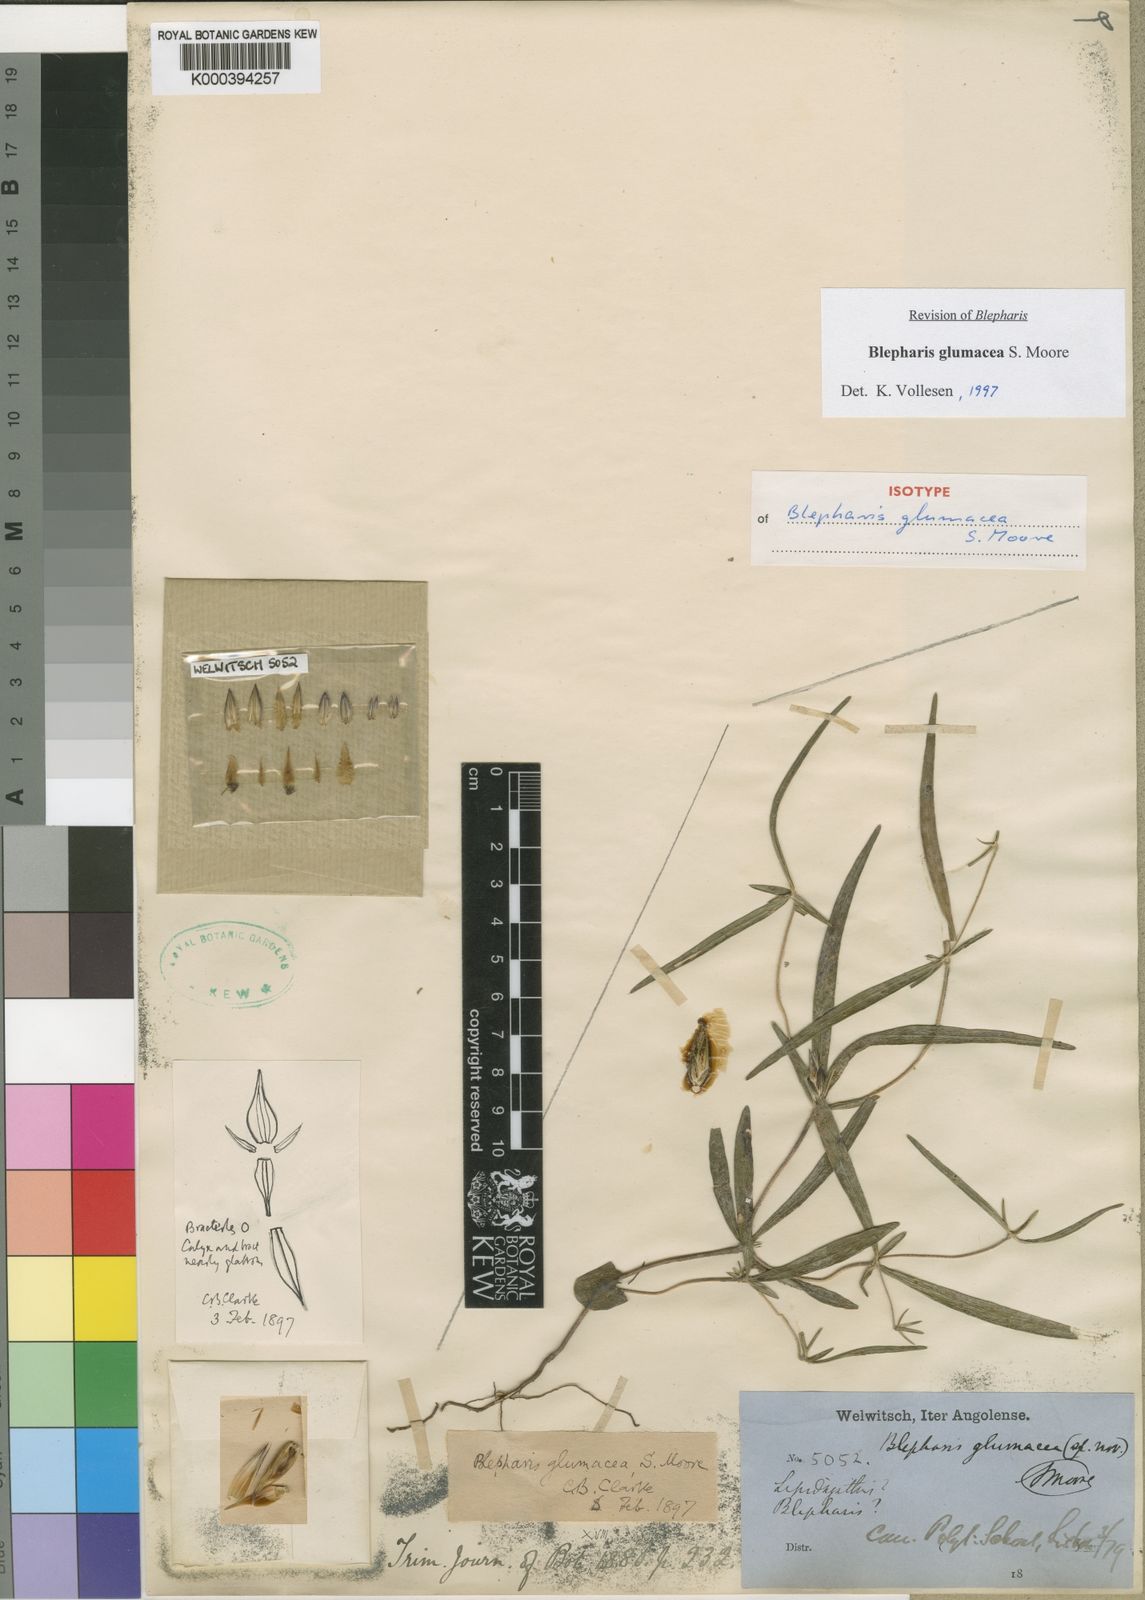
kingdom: Plantae
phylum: Tracheophyta
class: Magnoliopsida
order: Lamiales
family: Acanthaceae
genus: Blepharis
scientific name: Blepharis glumacea
